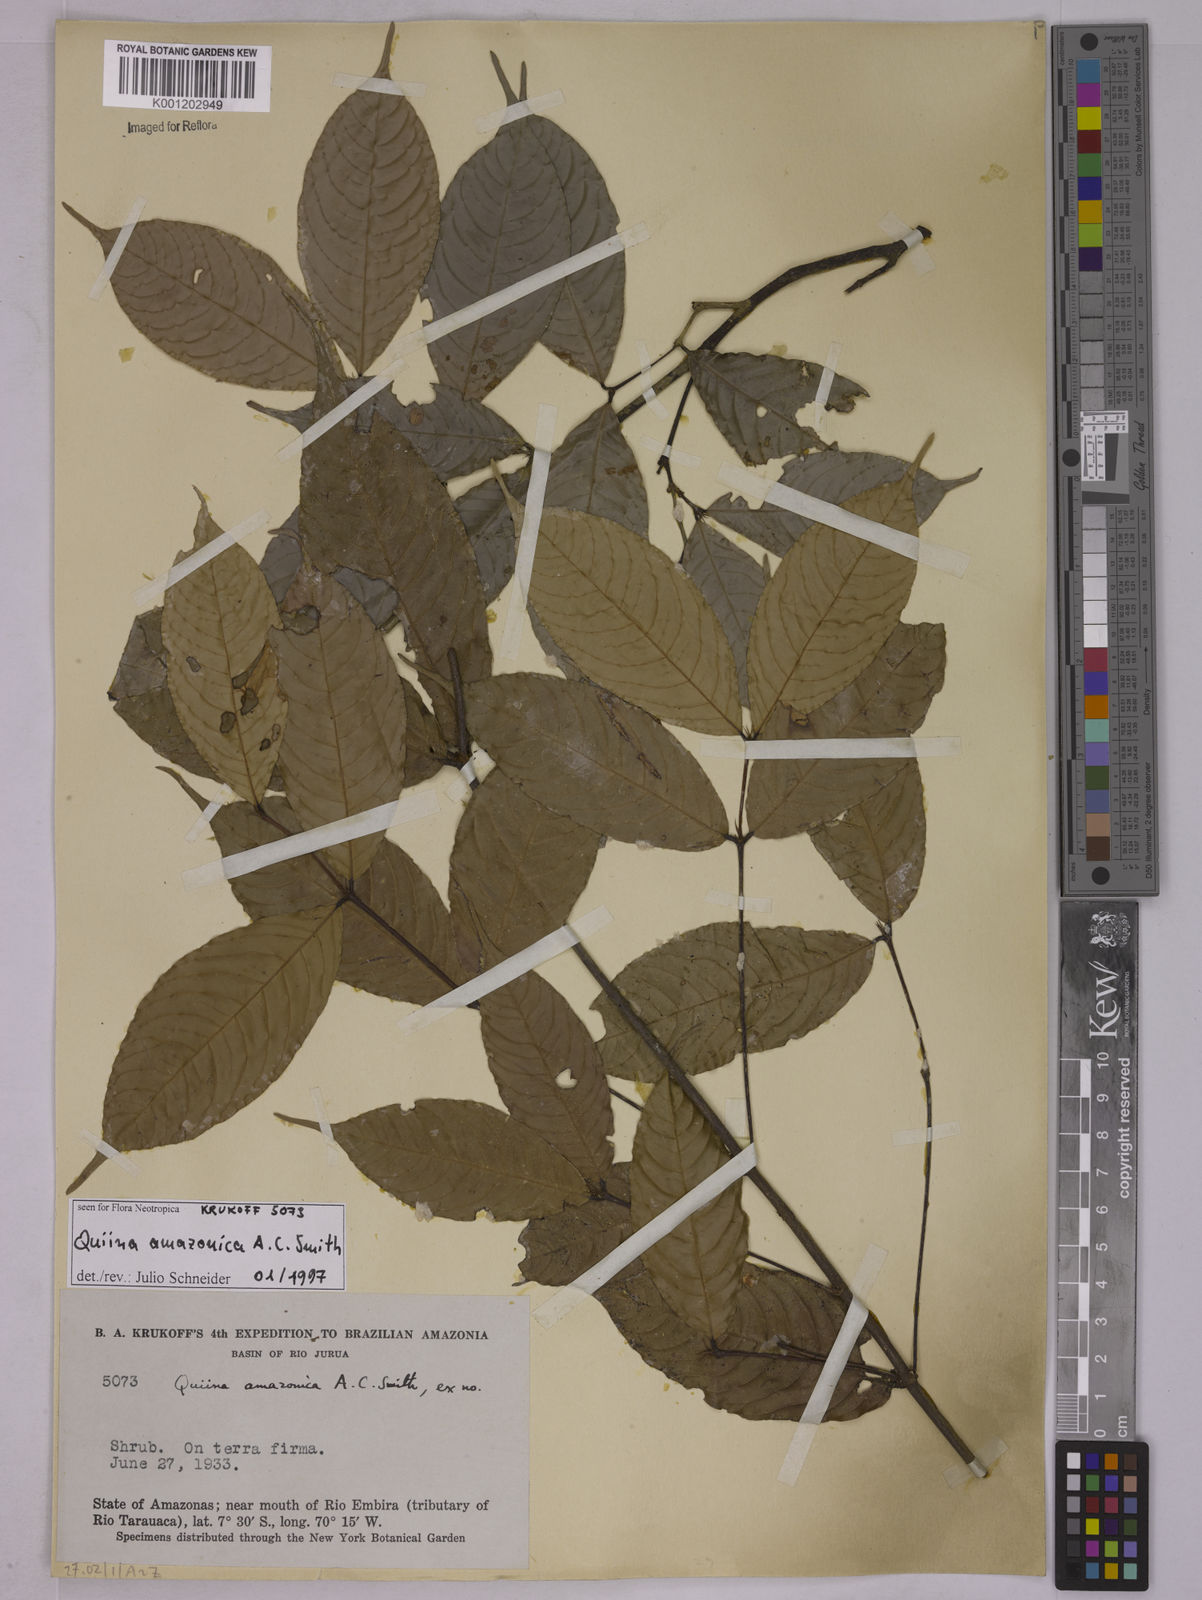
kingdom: Plantae
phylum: Tracheophyta
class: Magnoliopsida
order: Malpighiales
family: Quiinaceae
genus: Quiina
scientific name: Quiina amazonica
